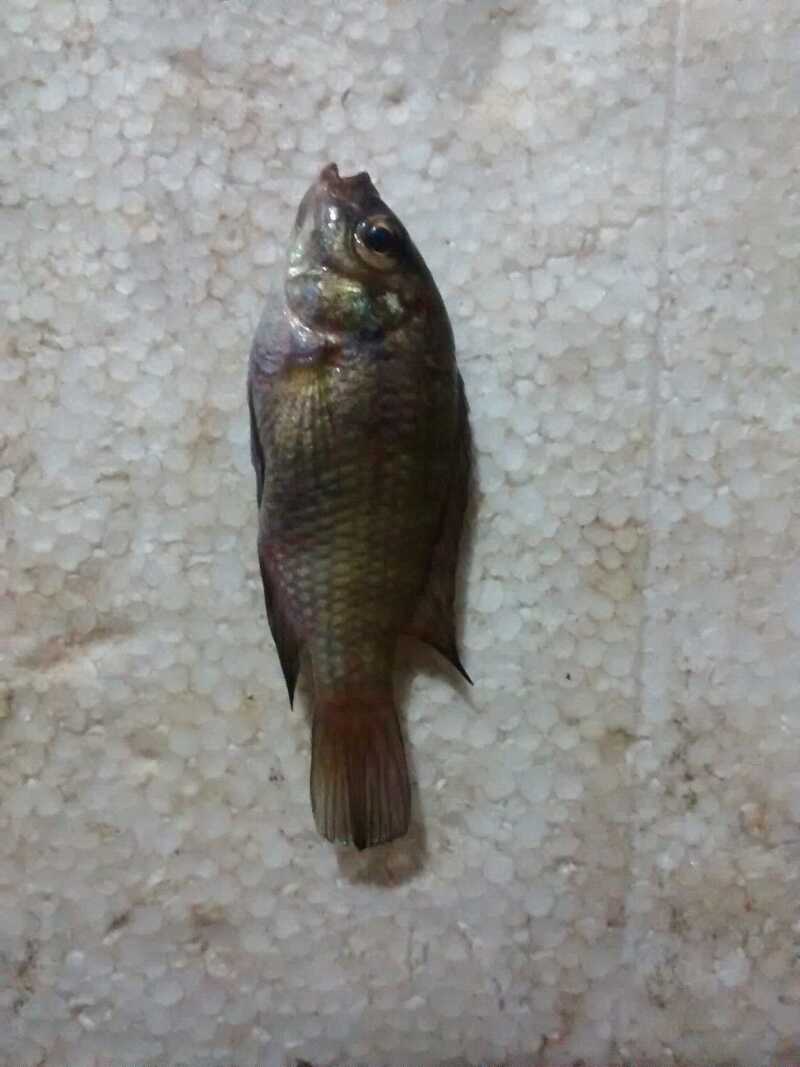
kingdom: Animalia
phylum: Chordata
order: Perciformes
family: Cichlidae
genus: Tilapia
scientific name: Tilapia sparrmanii
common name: Banded tilapia
